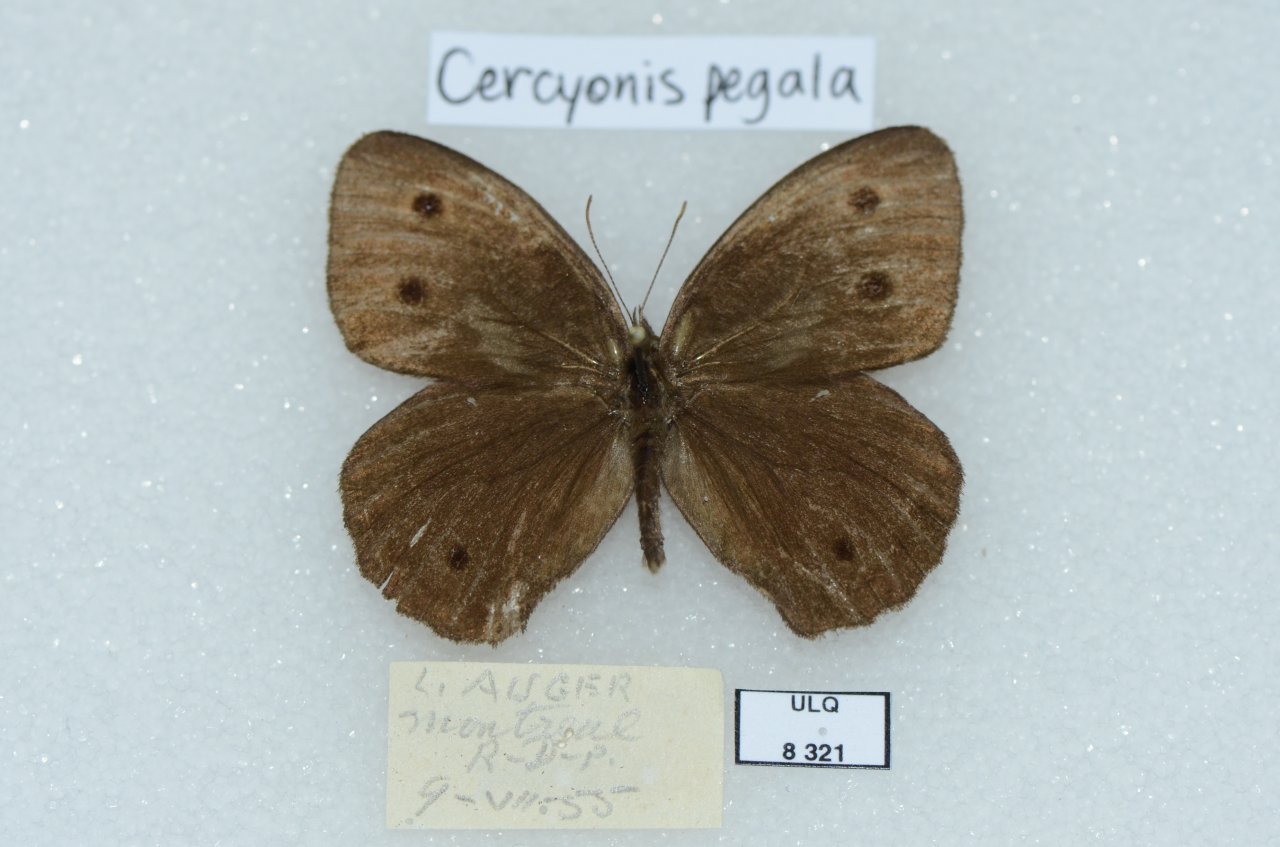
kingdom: Animalia
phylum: Arthropoda
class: Insecta
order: Lepidoptera
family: Nymphalidae
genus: Cercyonis
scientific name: Cercyonis pegala
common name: Common Wood-Nymph
